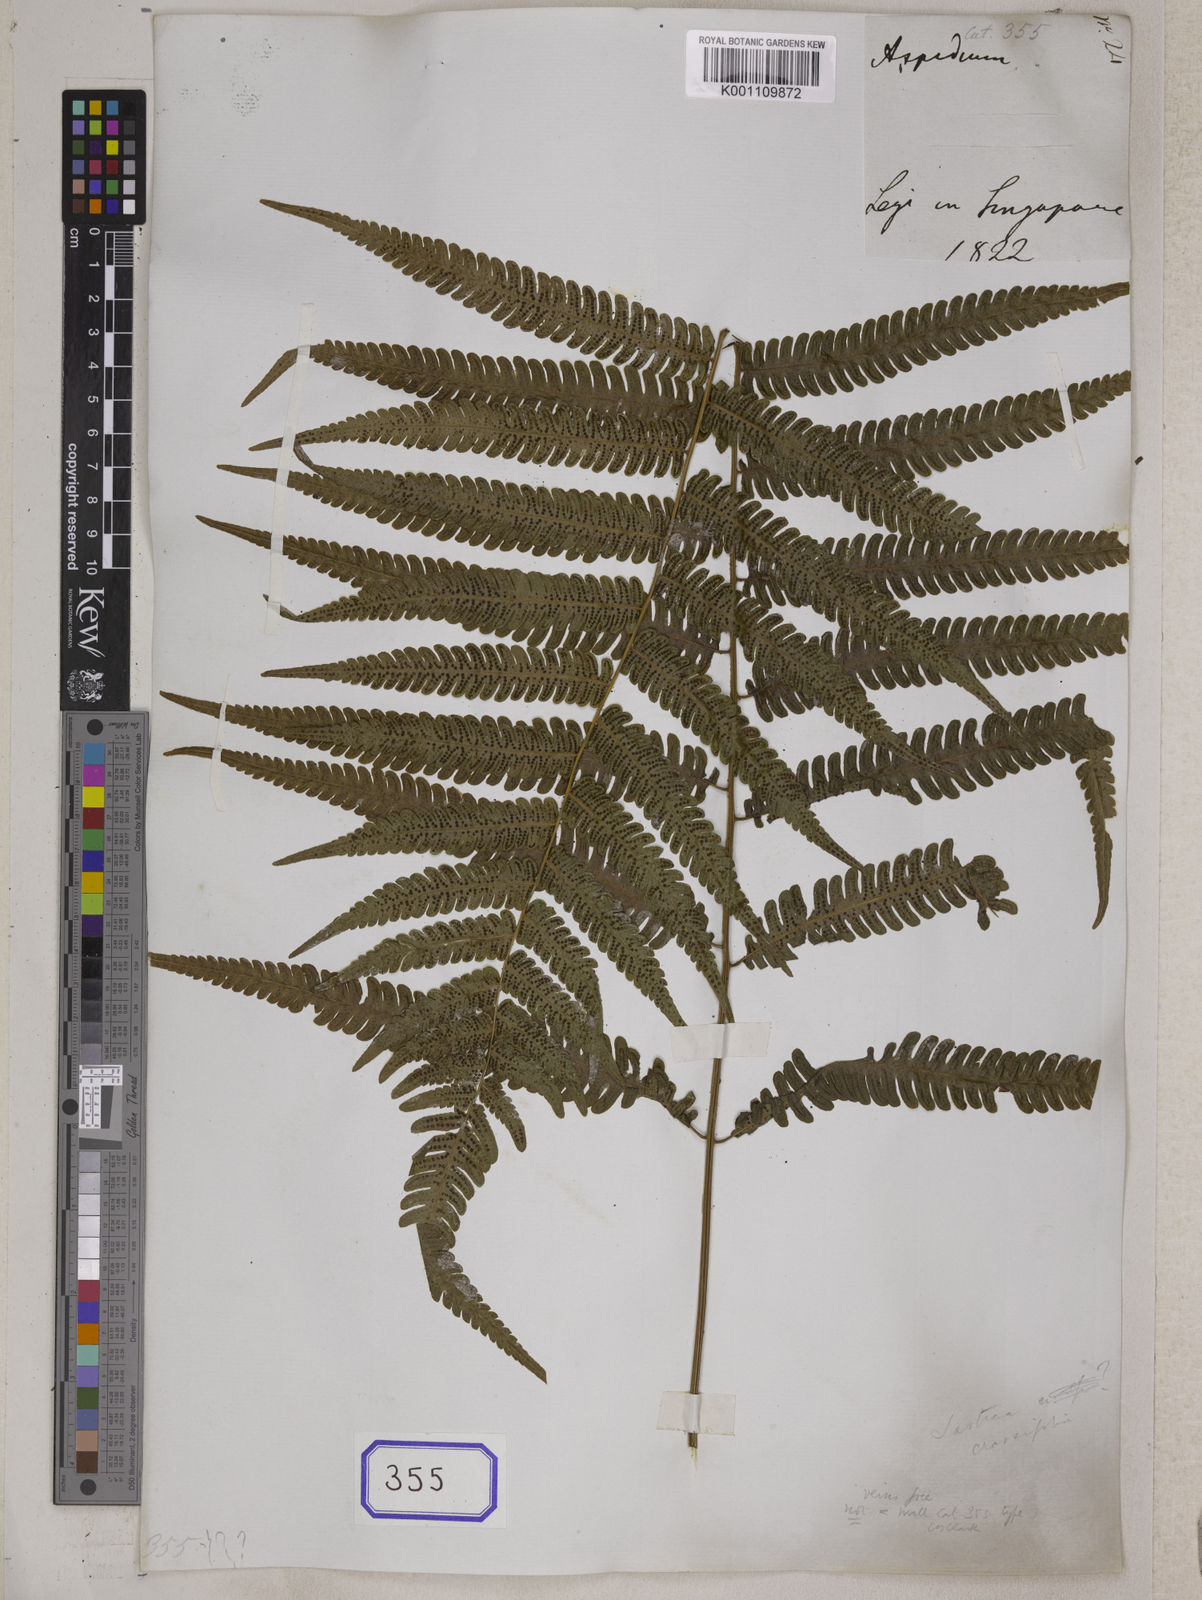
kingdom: Plantae
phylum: Tracheophyta
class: Polypodiopsida
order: Polypodiales
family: Thelypteridaceae
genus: Amblovenatum
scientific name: Amblovenatum immersum
